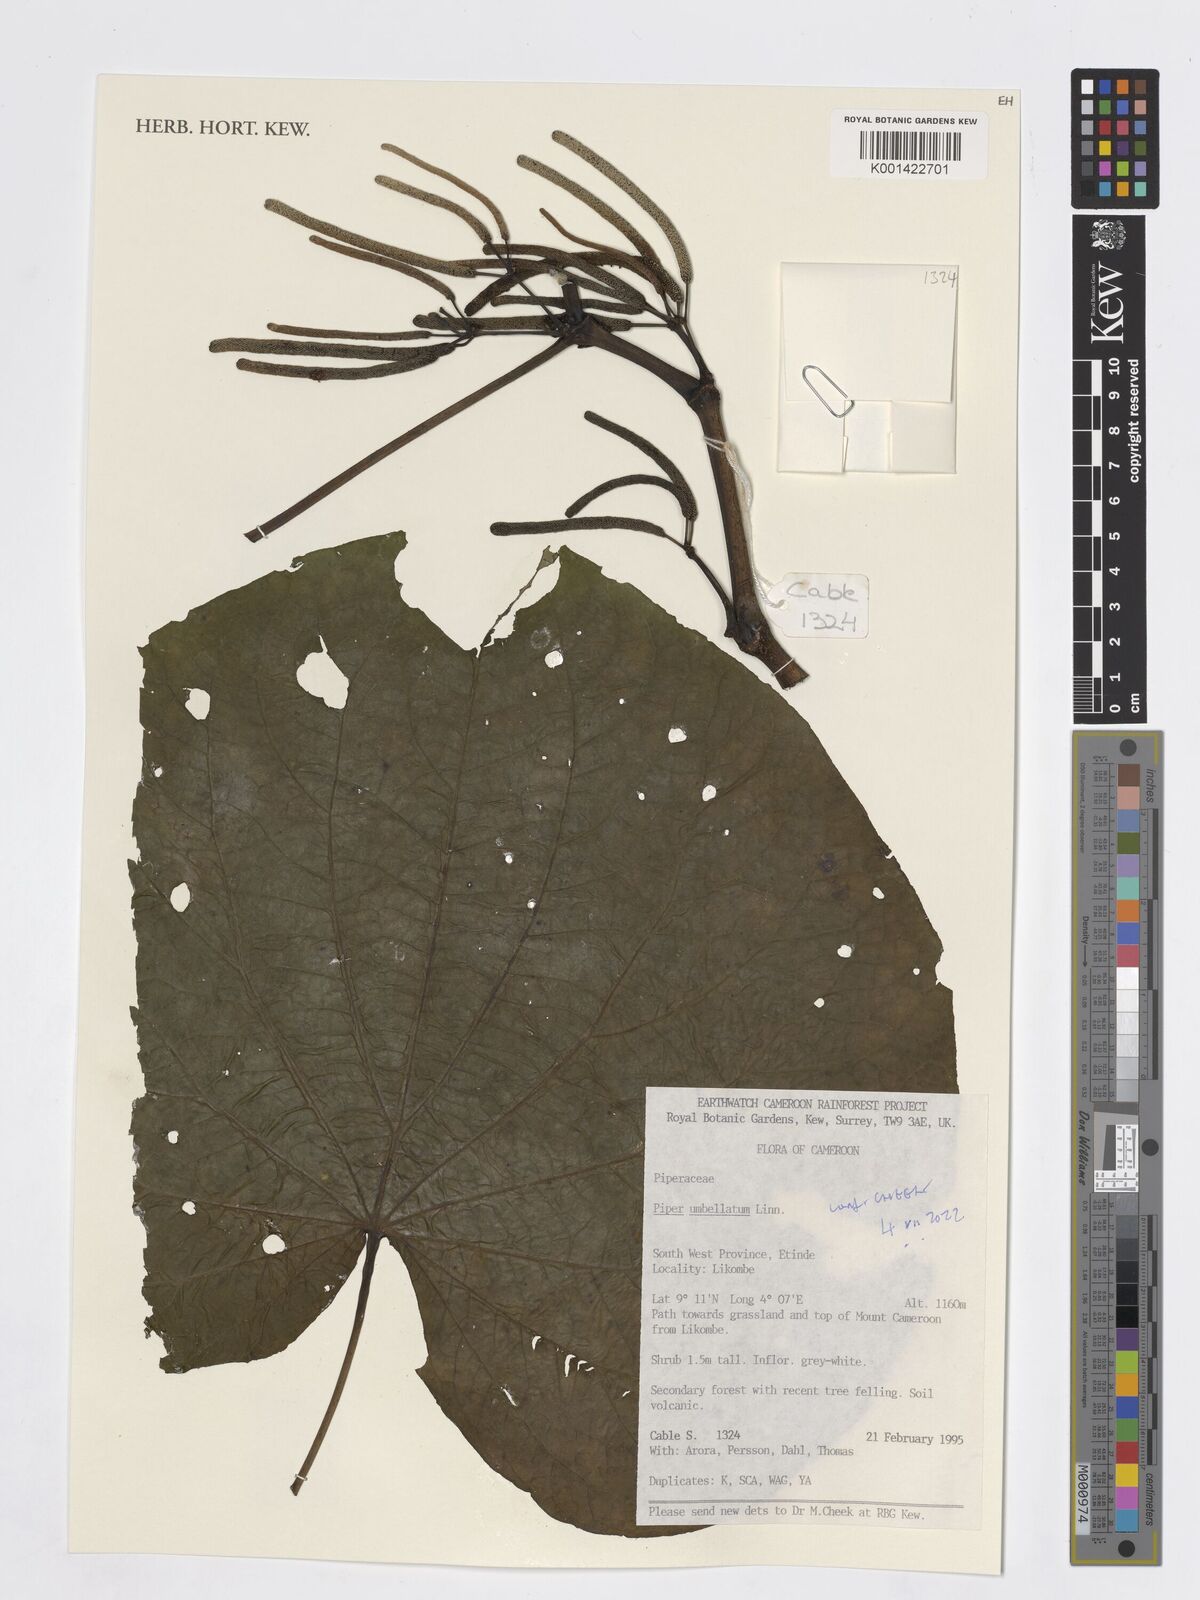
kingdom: Plantae
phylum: Tracheophyta
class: Magnoliopsida
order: Piperales
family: Piperaceae
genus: Piper
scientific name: Piper umbellatum
